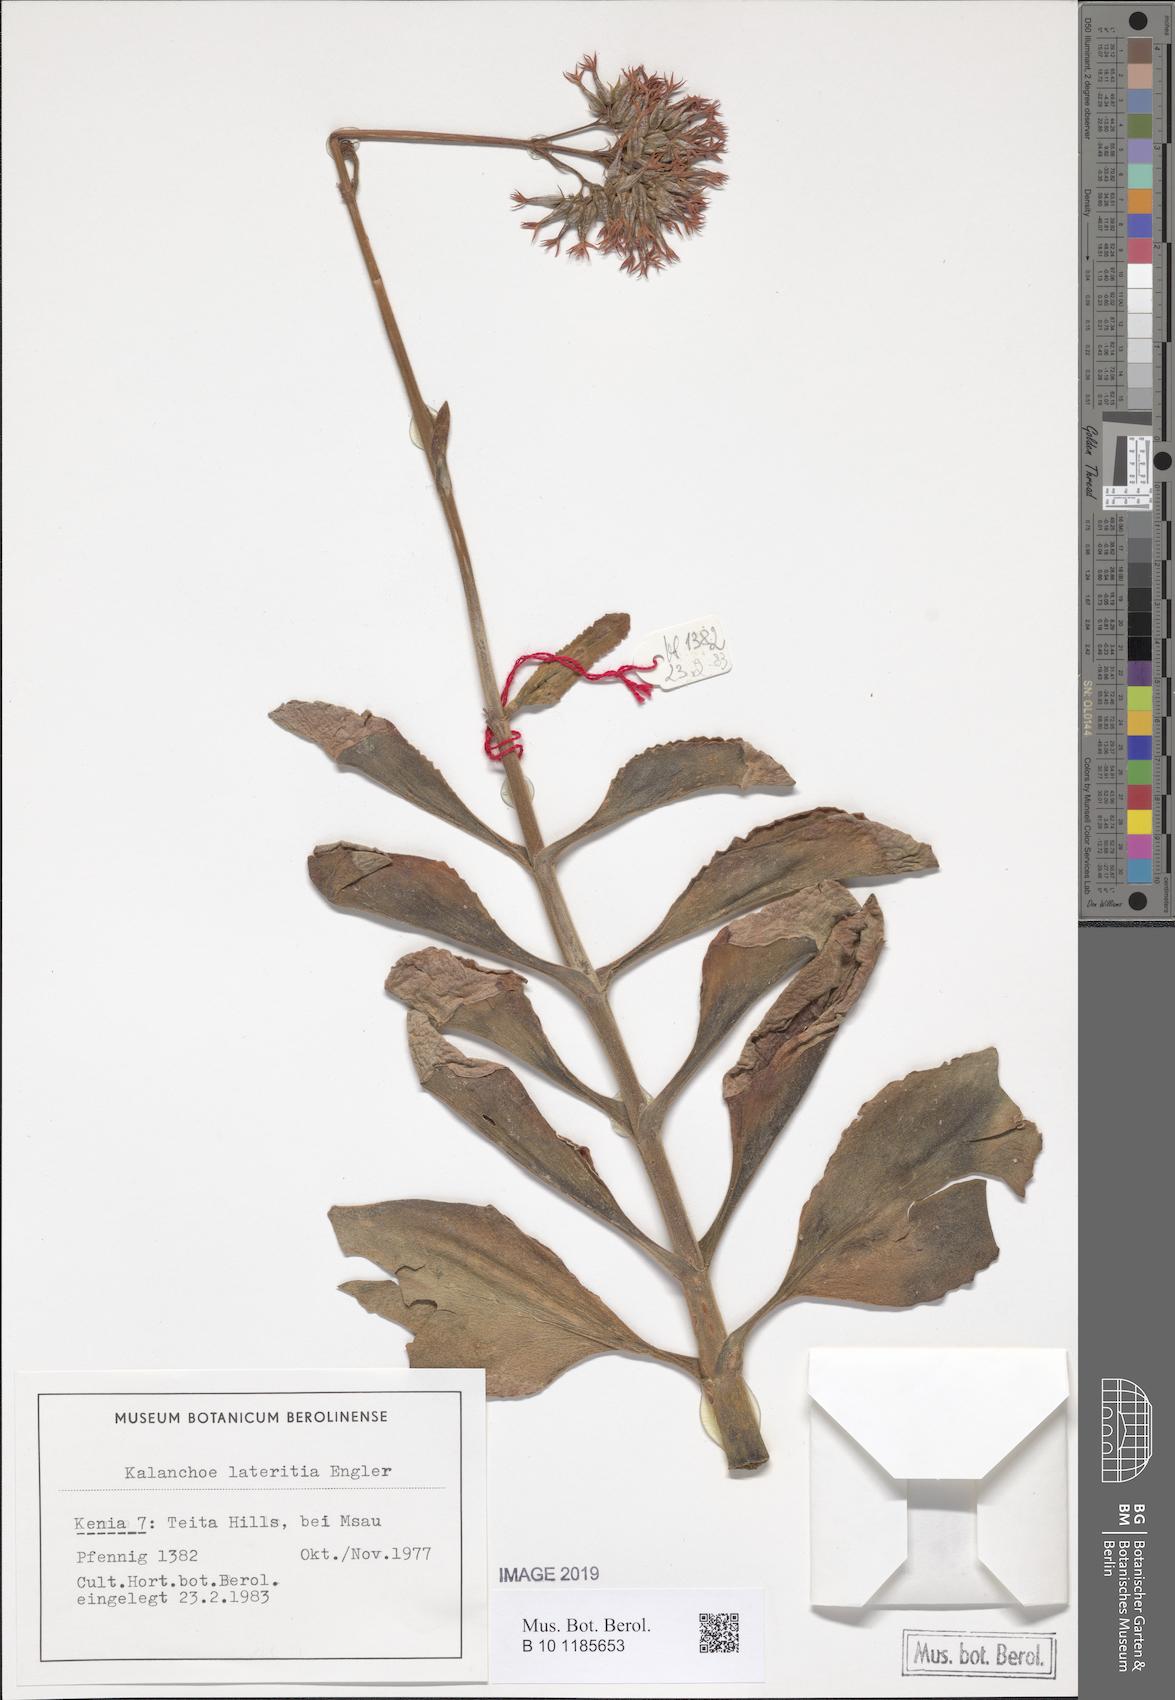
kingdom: Plantae
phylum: Tracheophyta
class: Magnoliopsida
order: Saxifragales
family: Crassulaceae
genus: Kalanchoe
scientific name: Kalanchoe lateritia
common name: Kalanchoe
